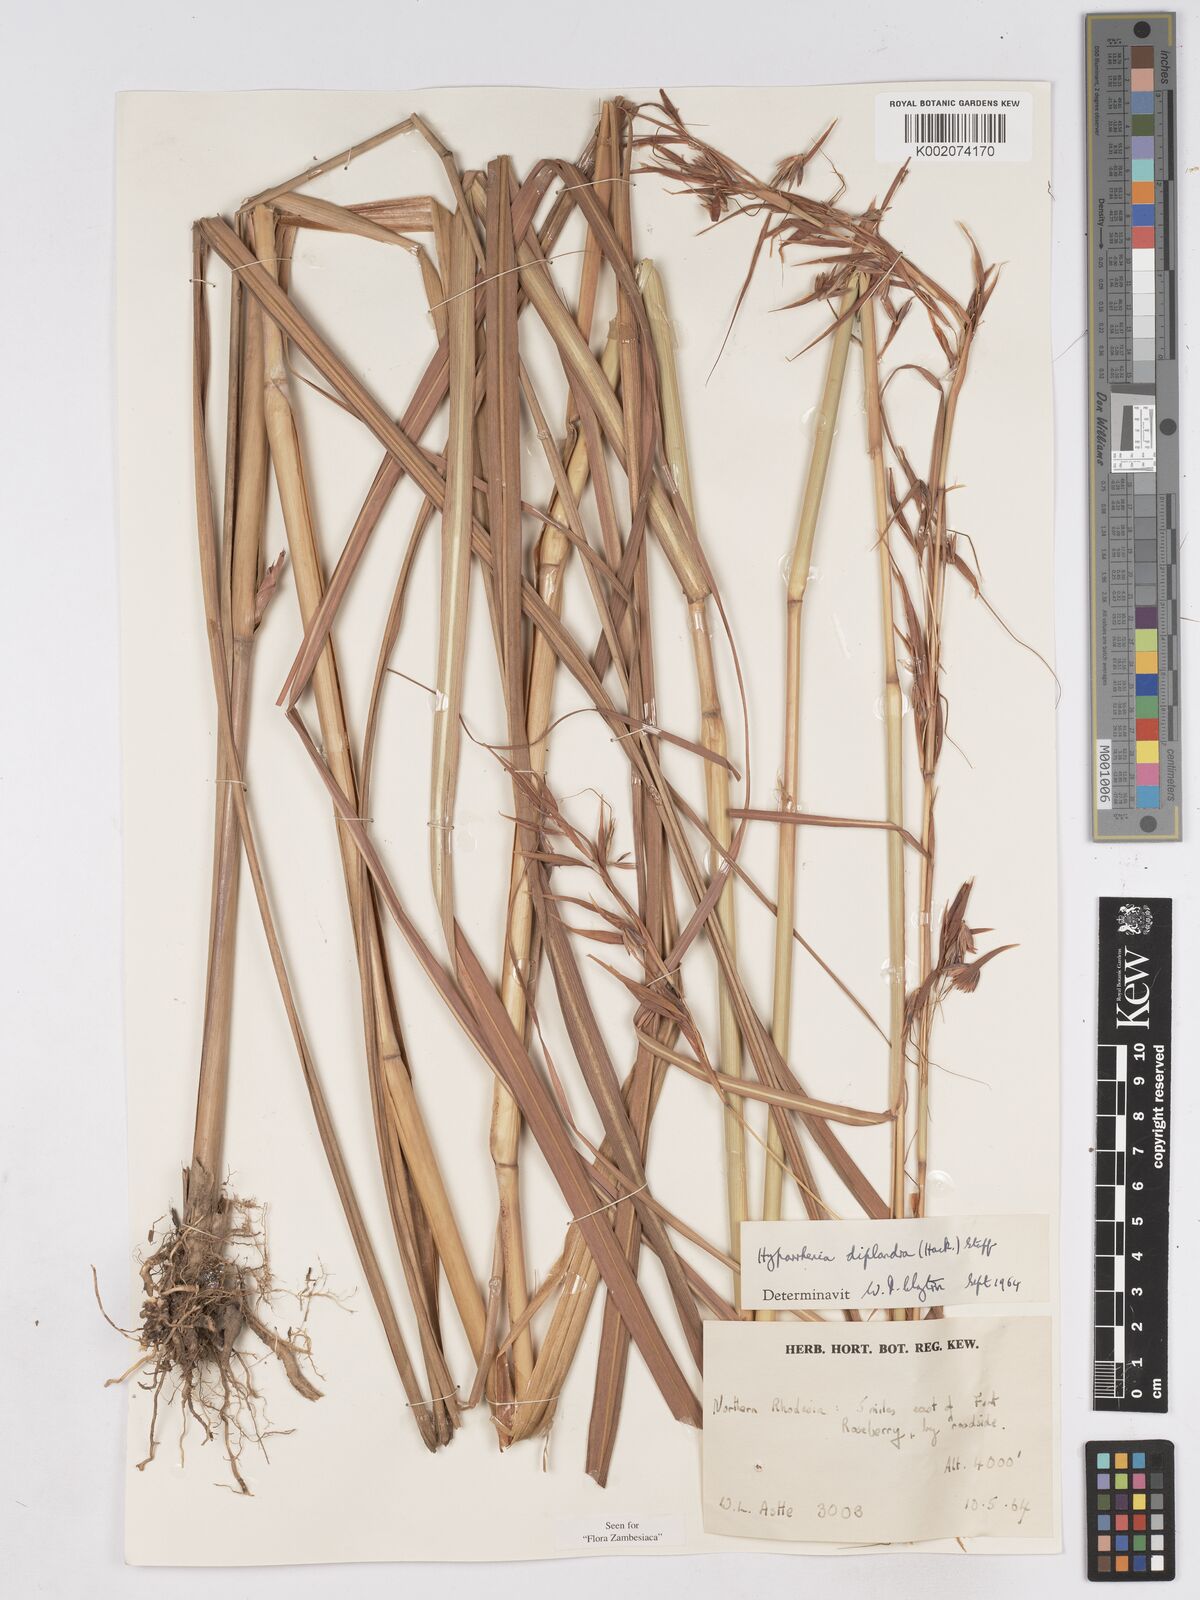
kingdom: Plantae
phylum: Tracheophyta
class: Liliopsida
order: Poales
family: Poaceae
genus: Hyparrhenia
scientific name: Hyparrhenia diplandra
